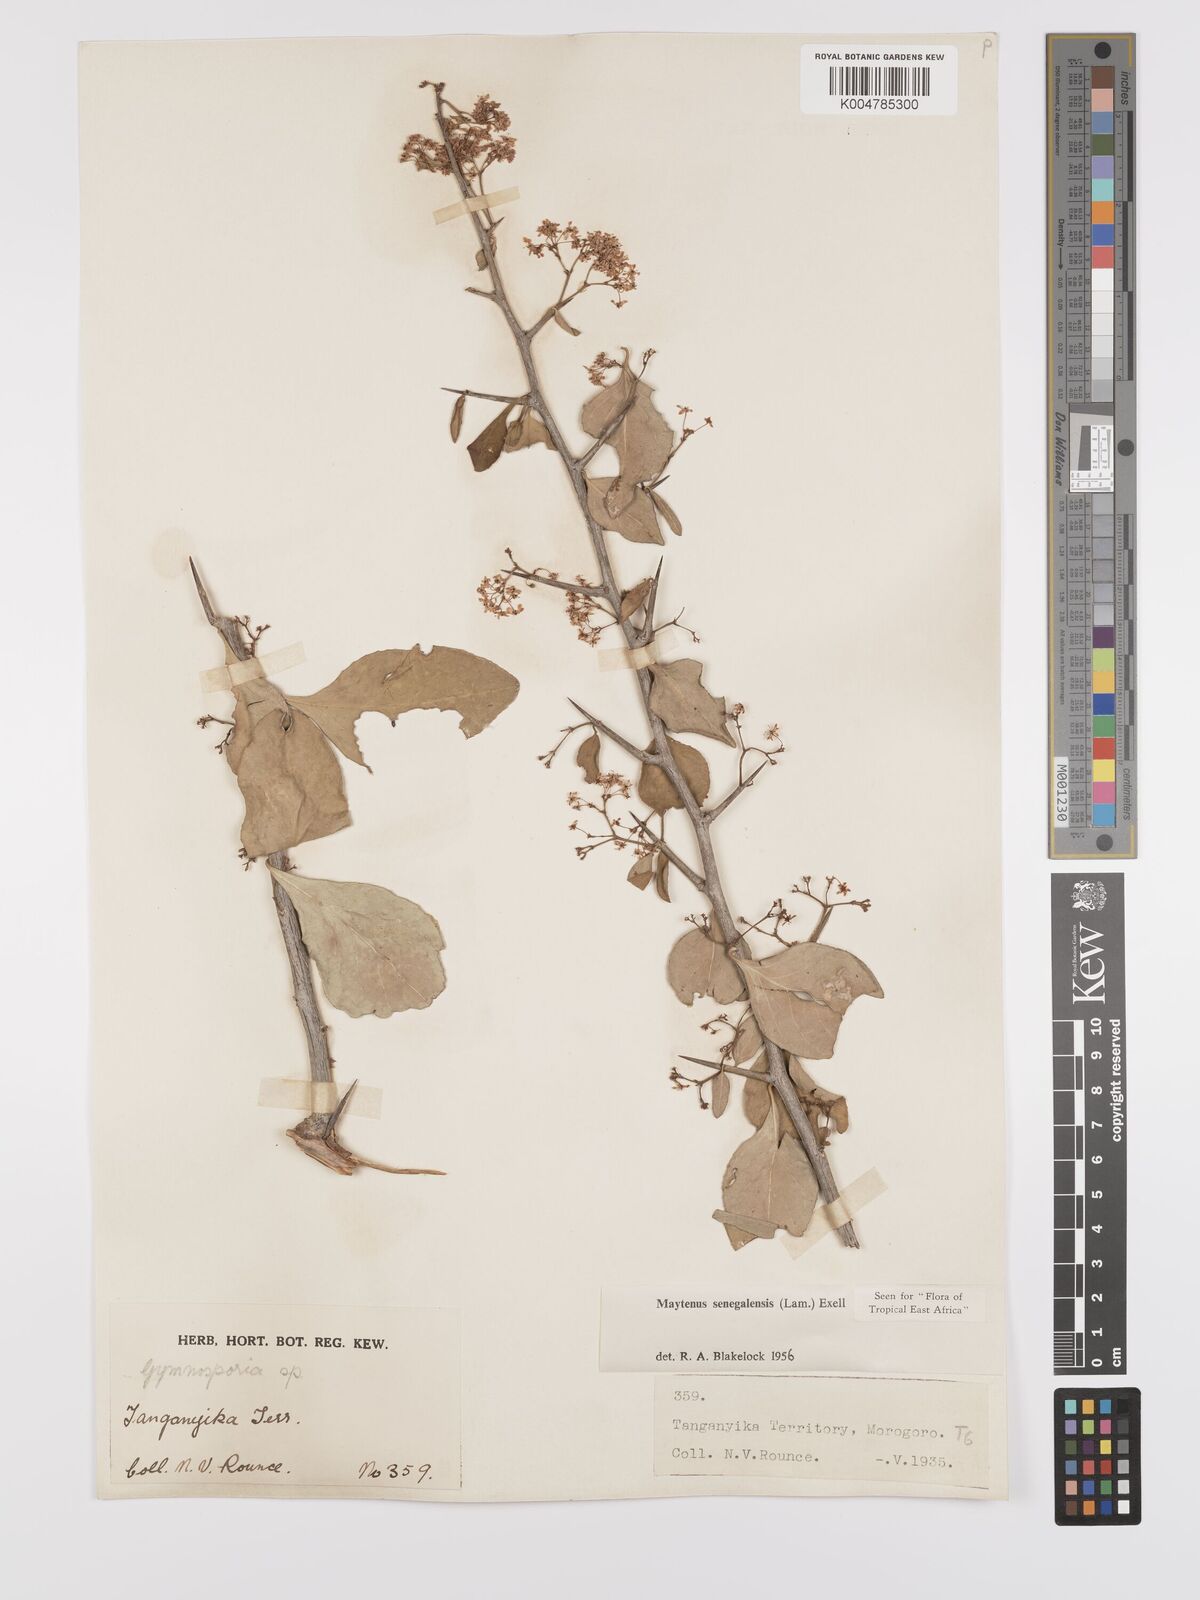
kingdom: Plantae
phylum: Tracheophyta
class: Magnoliopsida
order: Celastrales
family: Celastraceae
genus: Gymnosporia
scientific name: Gymnosporia nguruensis
